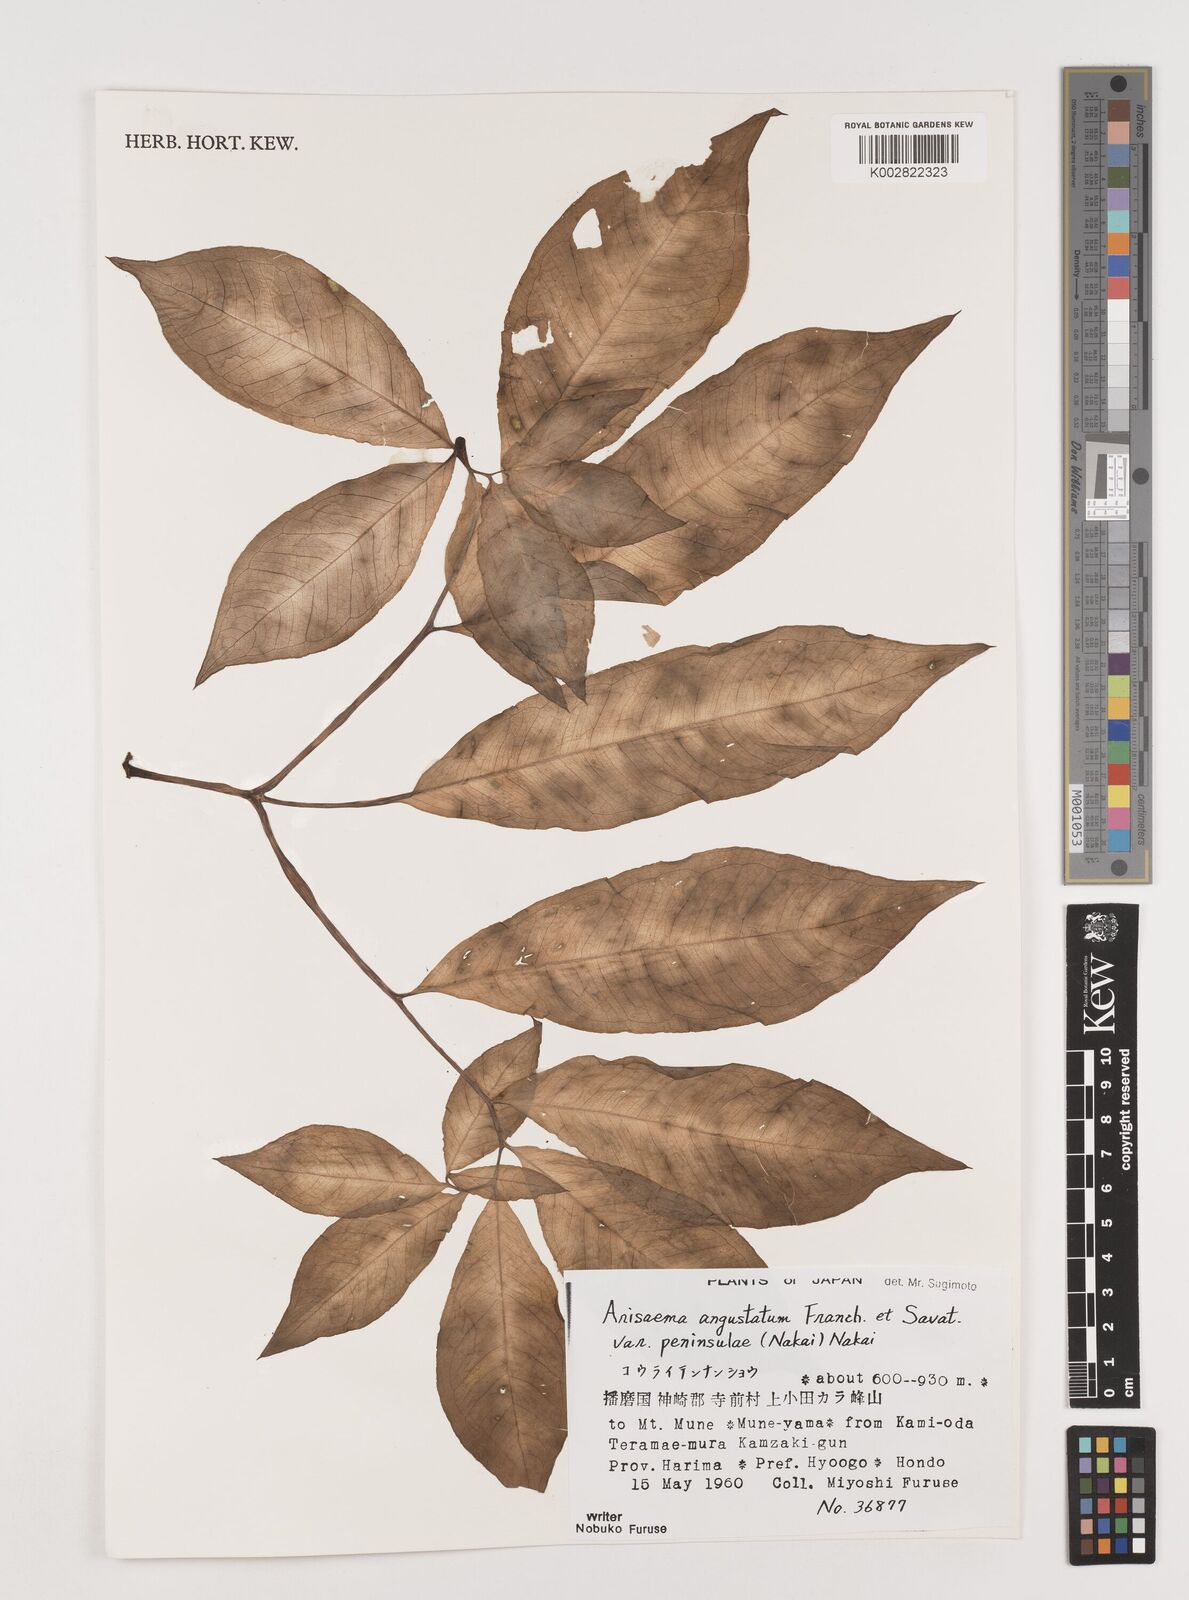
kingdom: Plantae
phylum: Tracheophyta
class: Liliopsida
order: Alismatales
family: Araceae
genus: Arisaema
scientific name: Arisaema angustatum
